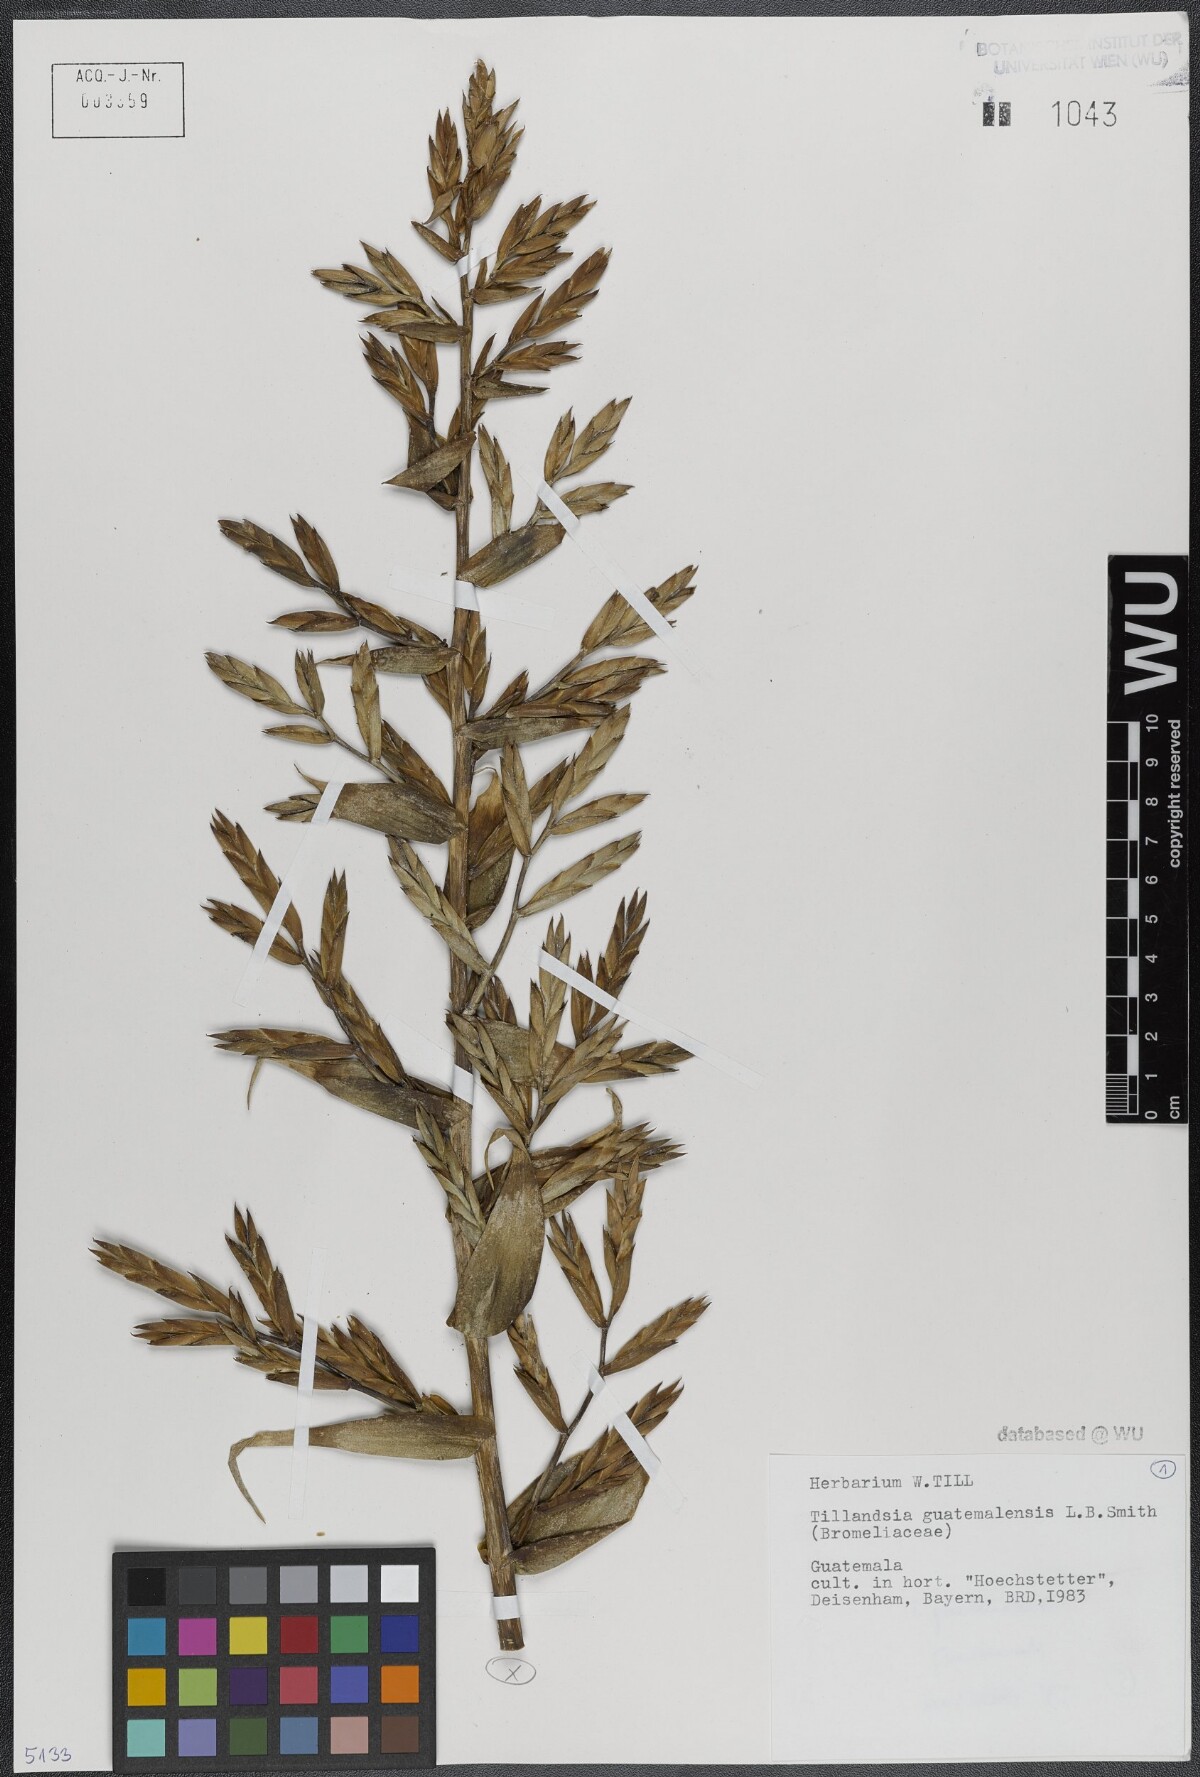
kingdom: Plantae
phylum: Tracheophyta
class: Liliopsida
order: Poales
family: Bromeliaceae
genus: Tillandsia
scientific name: Tillandsia guatemalensis
